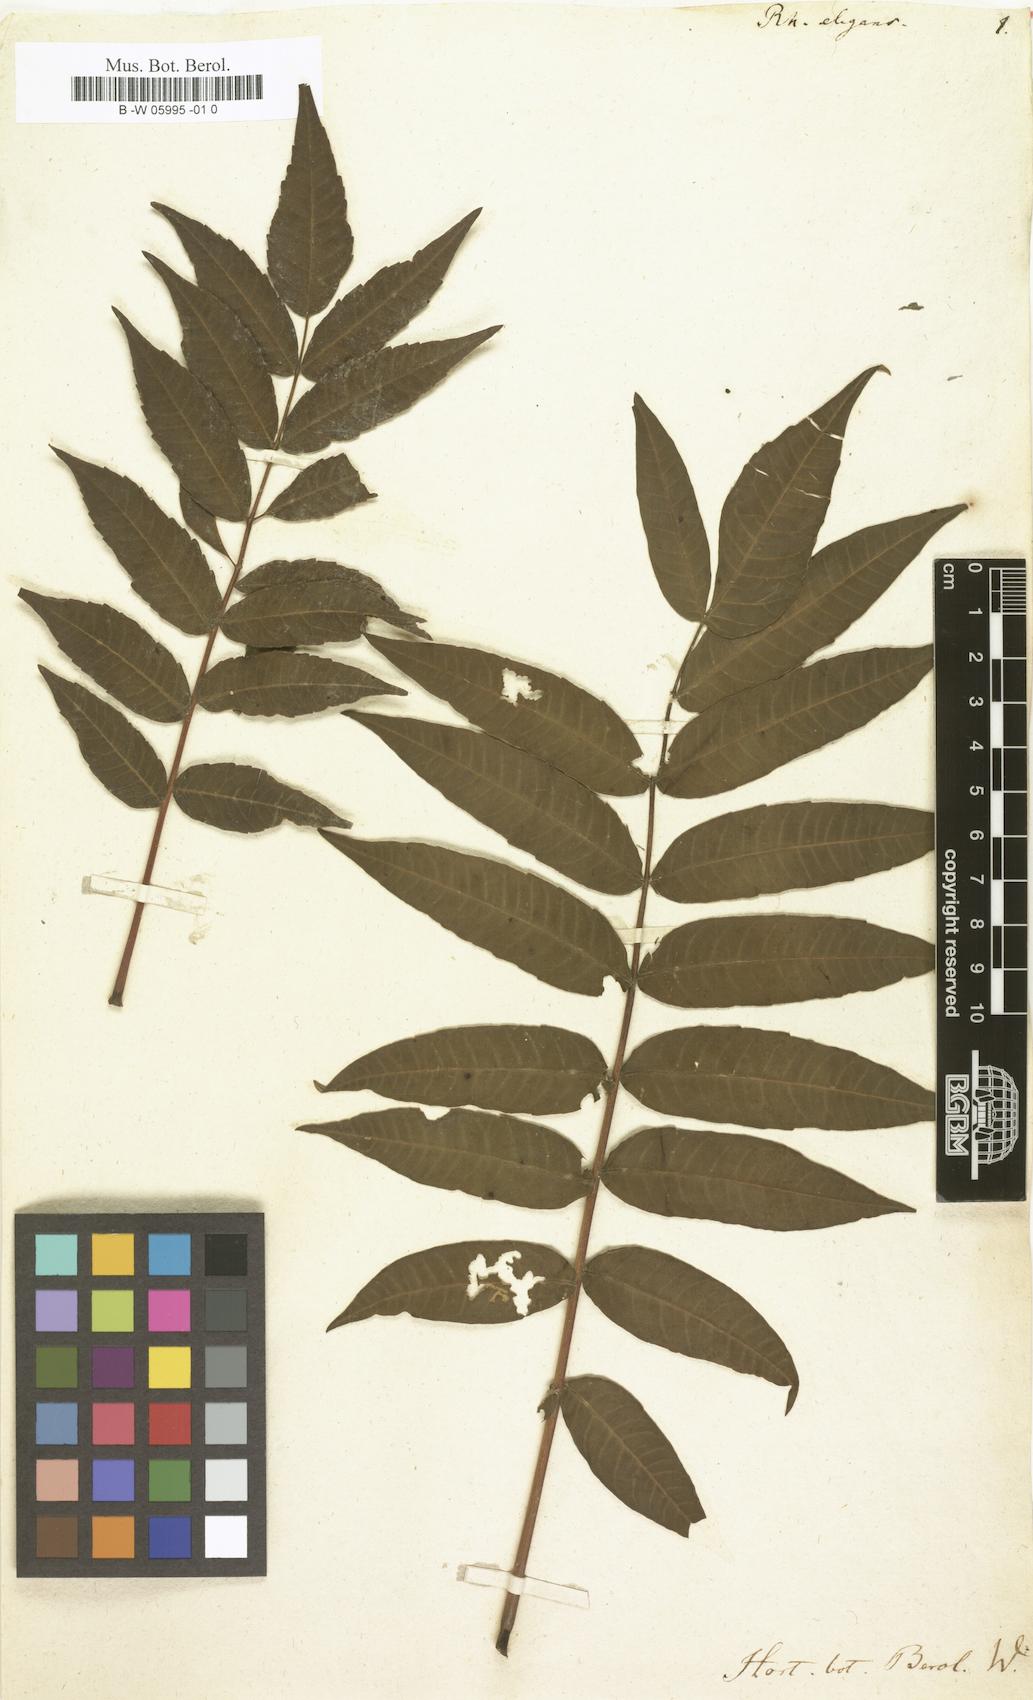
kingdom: Plantae
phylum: Tracheophyta
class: Magnoliopsida
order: Sapindales
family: Anacardiaceae
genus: Rhus
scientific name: Rhus glabra
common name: Scarlet sumac
